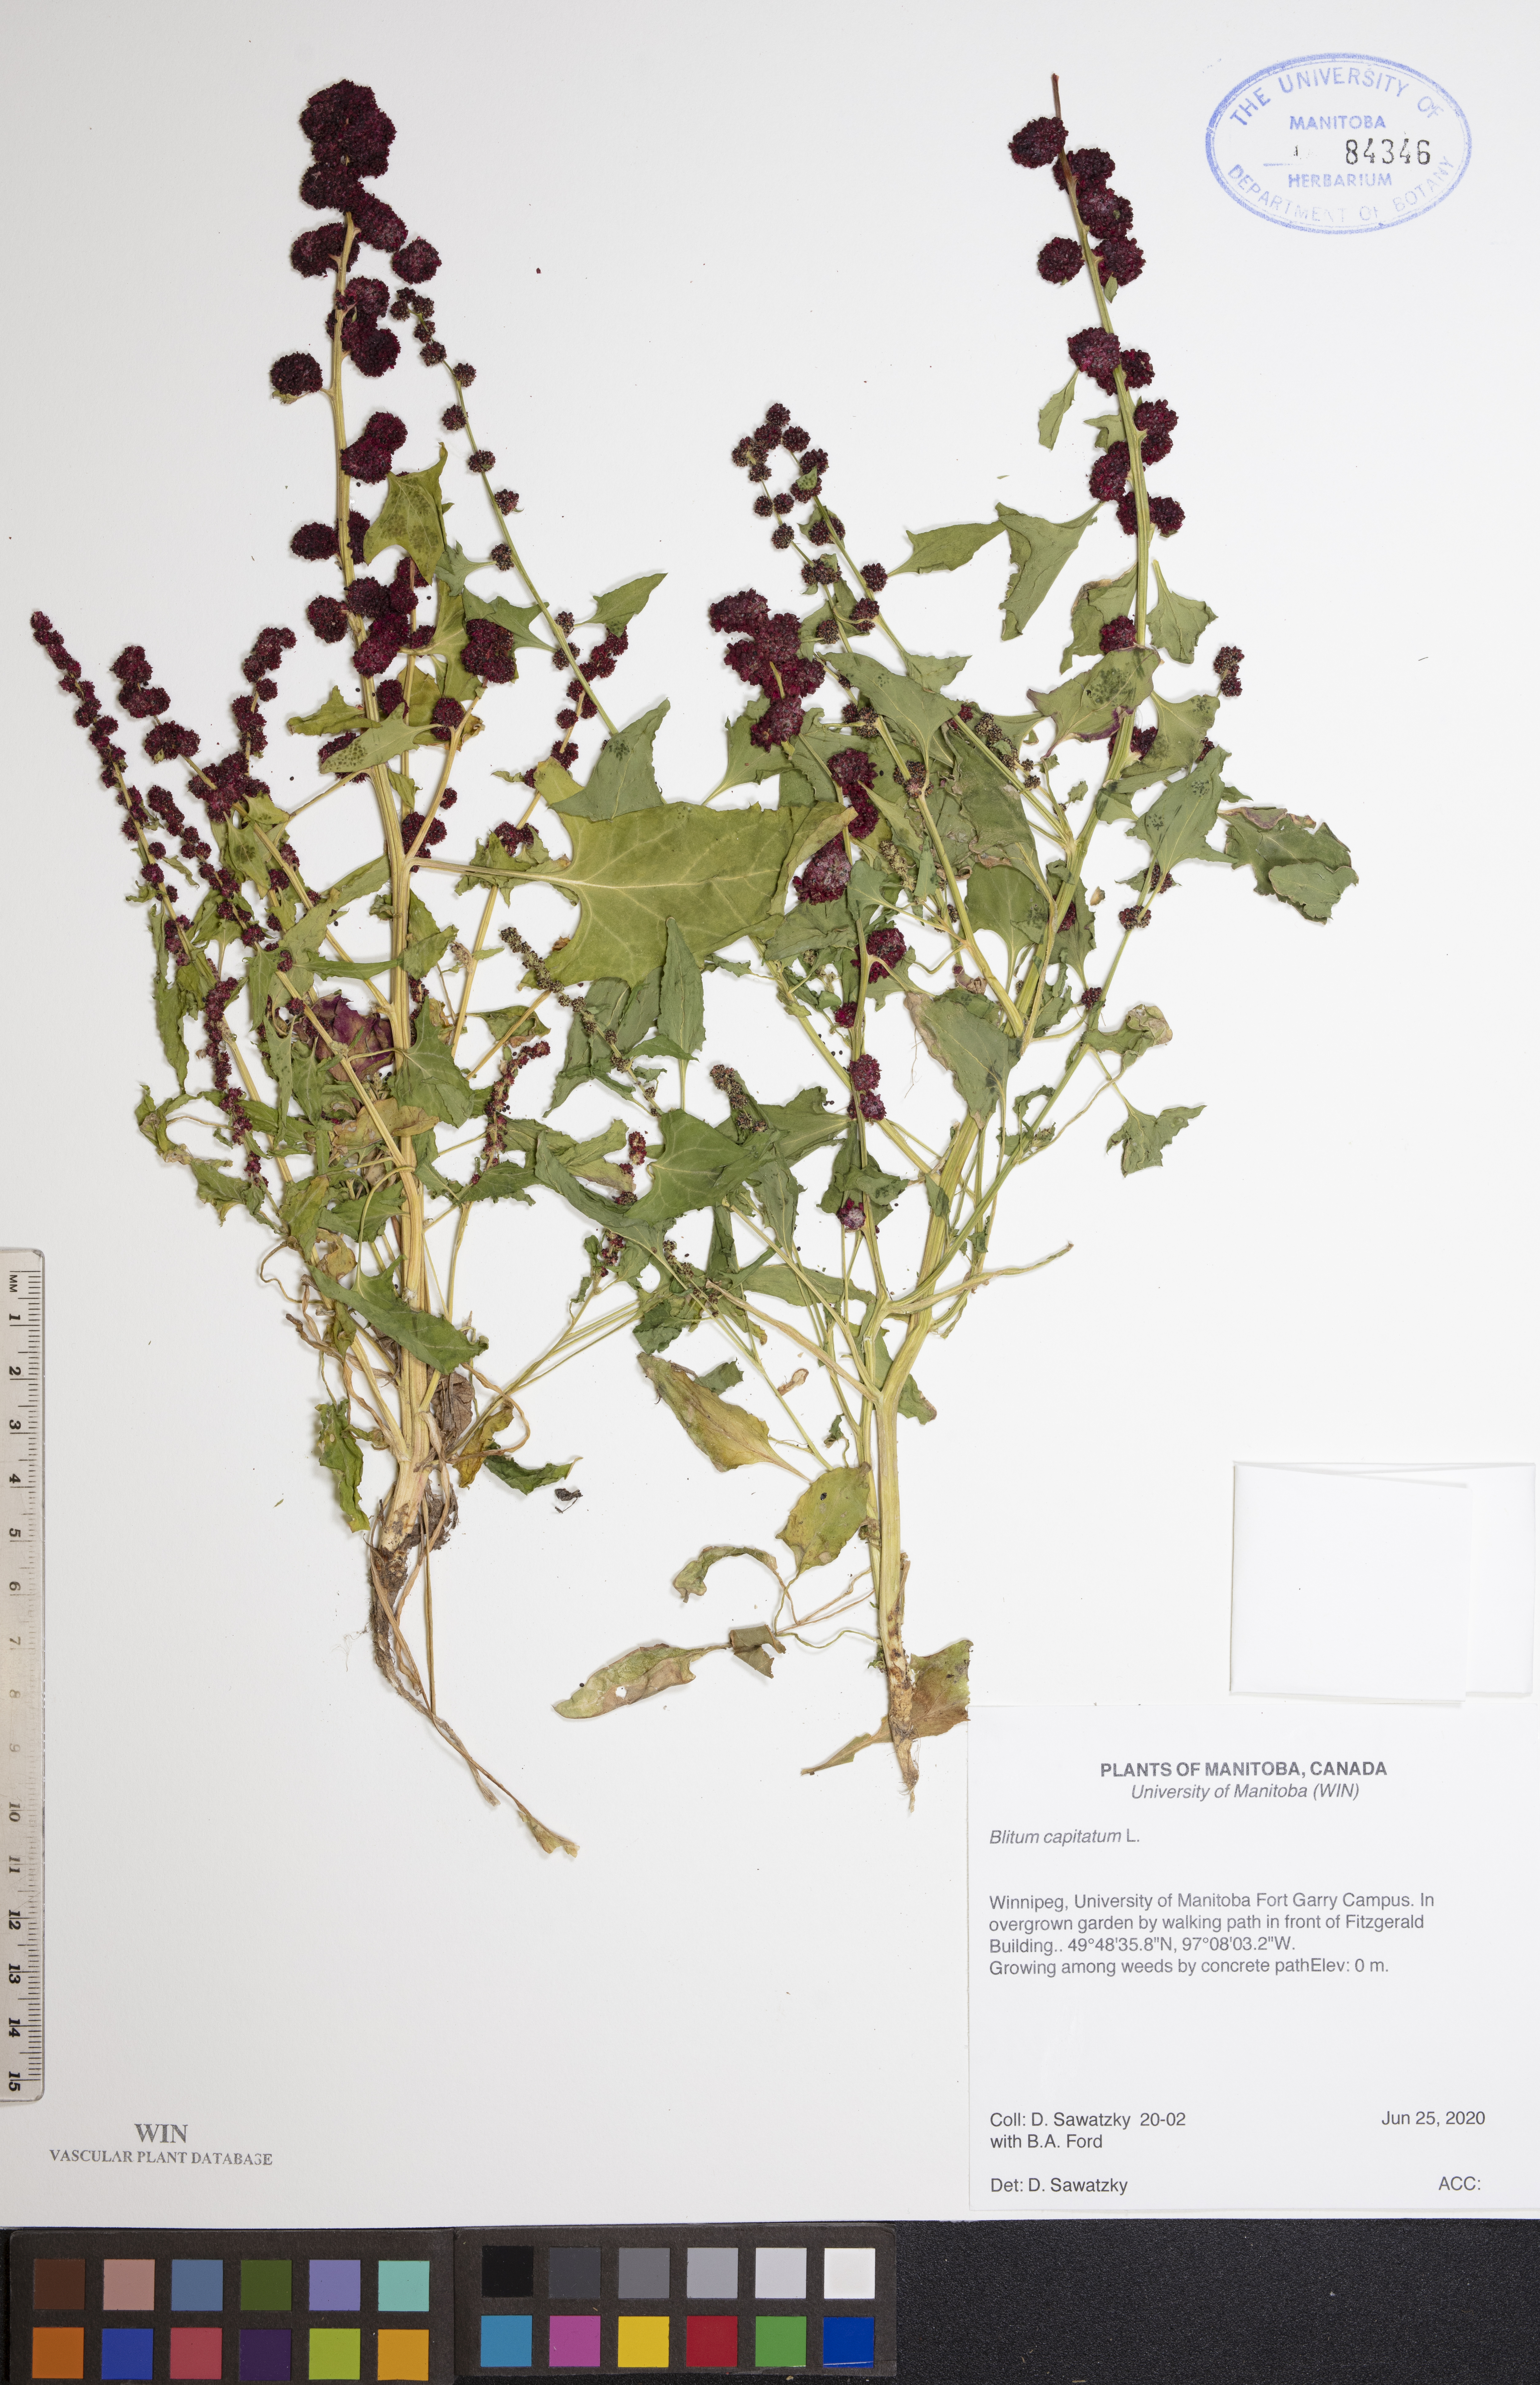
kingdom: Plantae
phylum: Tracheophyta
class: Magnoliopsida
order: Caryophyllales
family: Amaranthaceae
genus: Blitum
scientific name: Blitum capitatum
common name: Strawberry-blight
